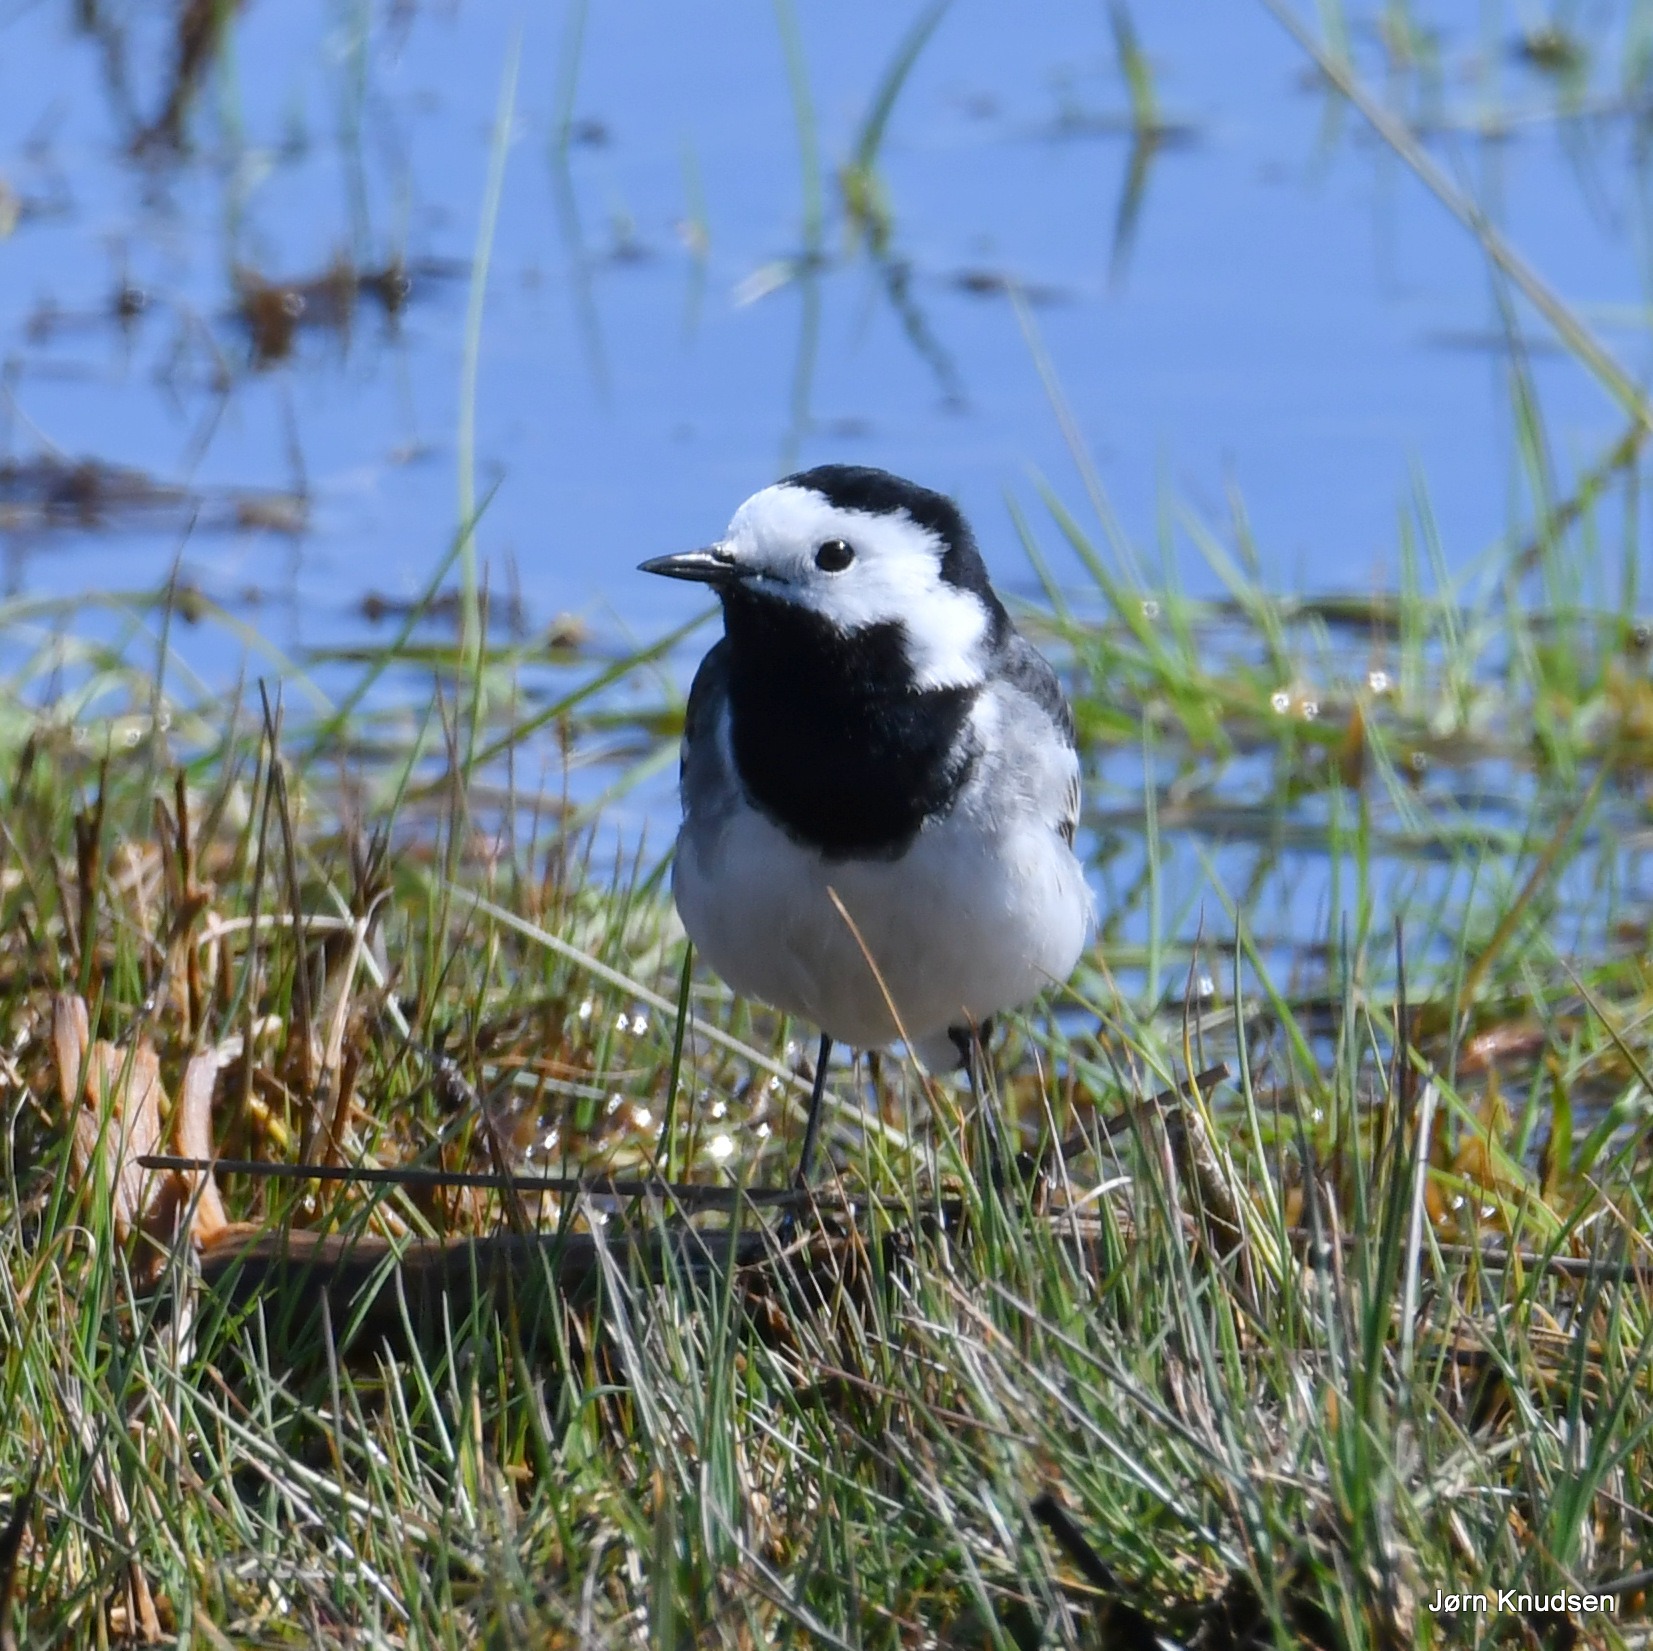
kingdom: Animalia
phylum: Chordata
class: Aves
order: Passeriformes
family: Motacillidae
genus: Motacilla
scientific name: Motacilla alba
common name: Hvid vipstjert
